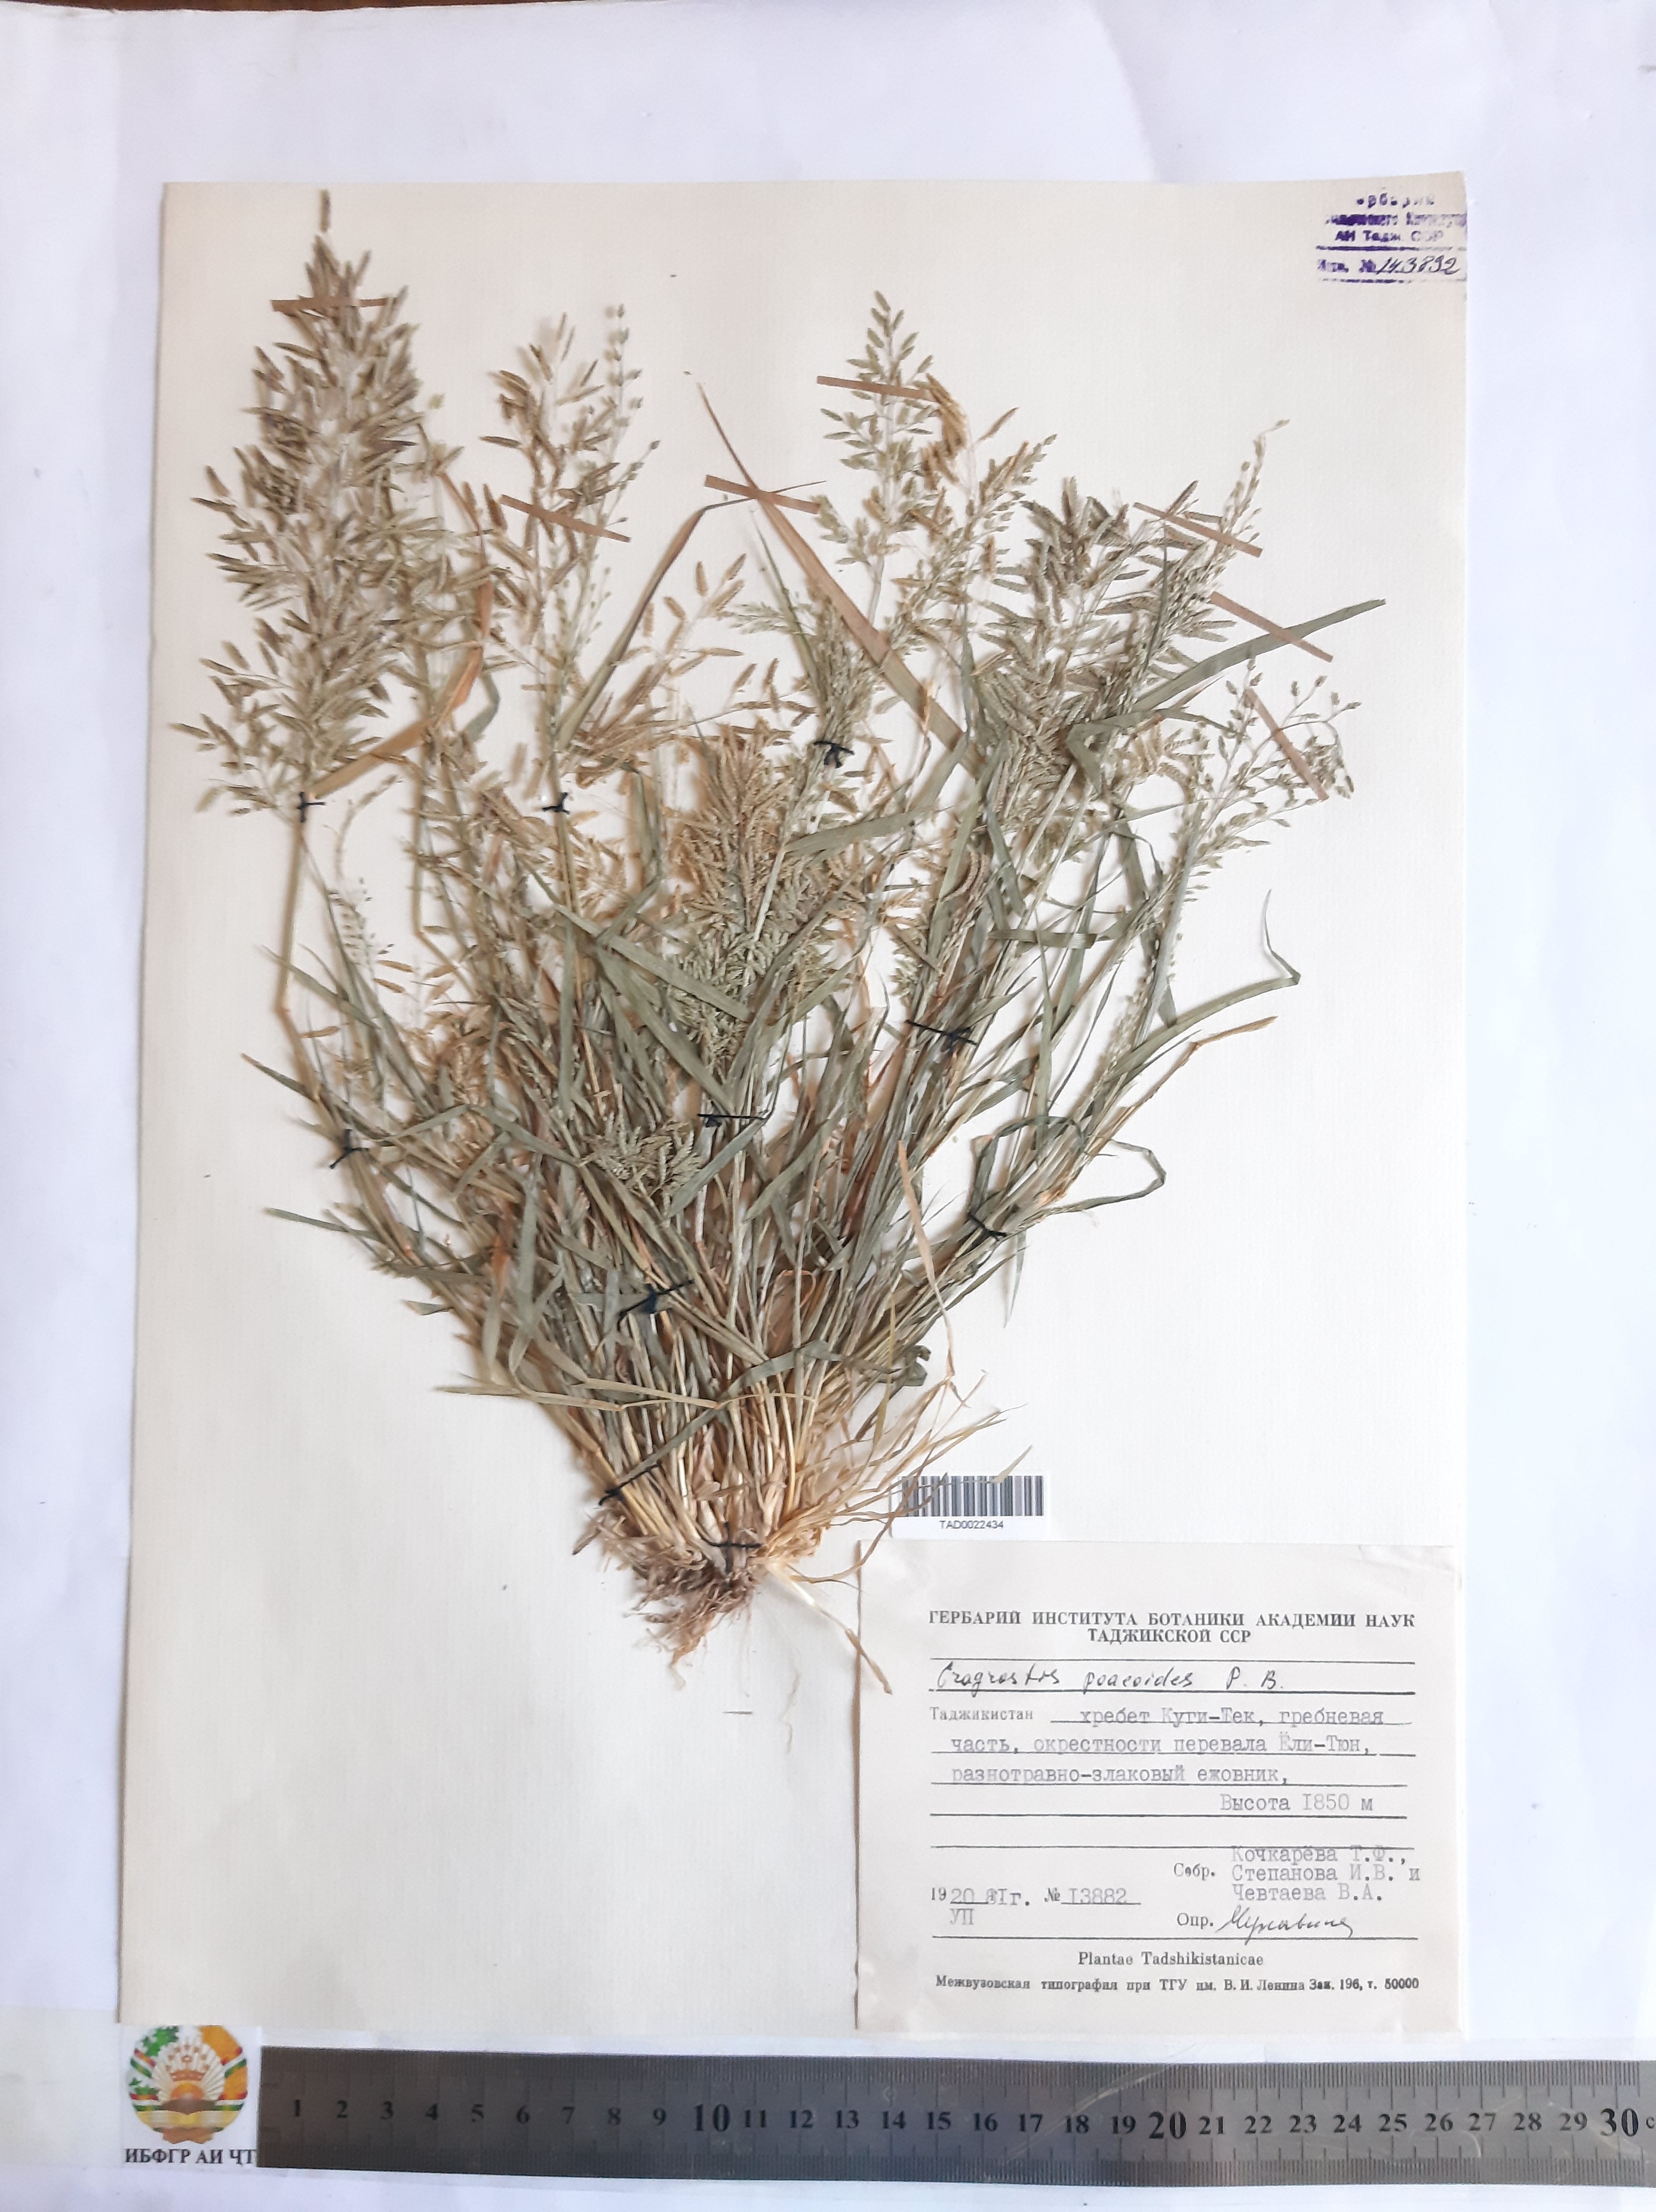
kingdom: Plantae
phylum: Tracheophyta
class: Liliopsida
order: Poales
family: Poaceae
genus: Eragrostis
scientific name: Eragrostis minor
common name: Small love-grass
